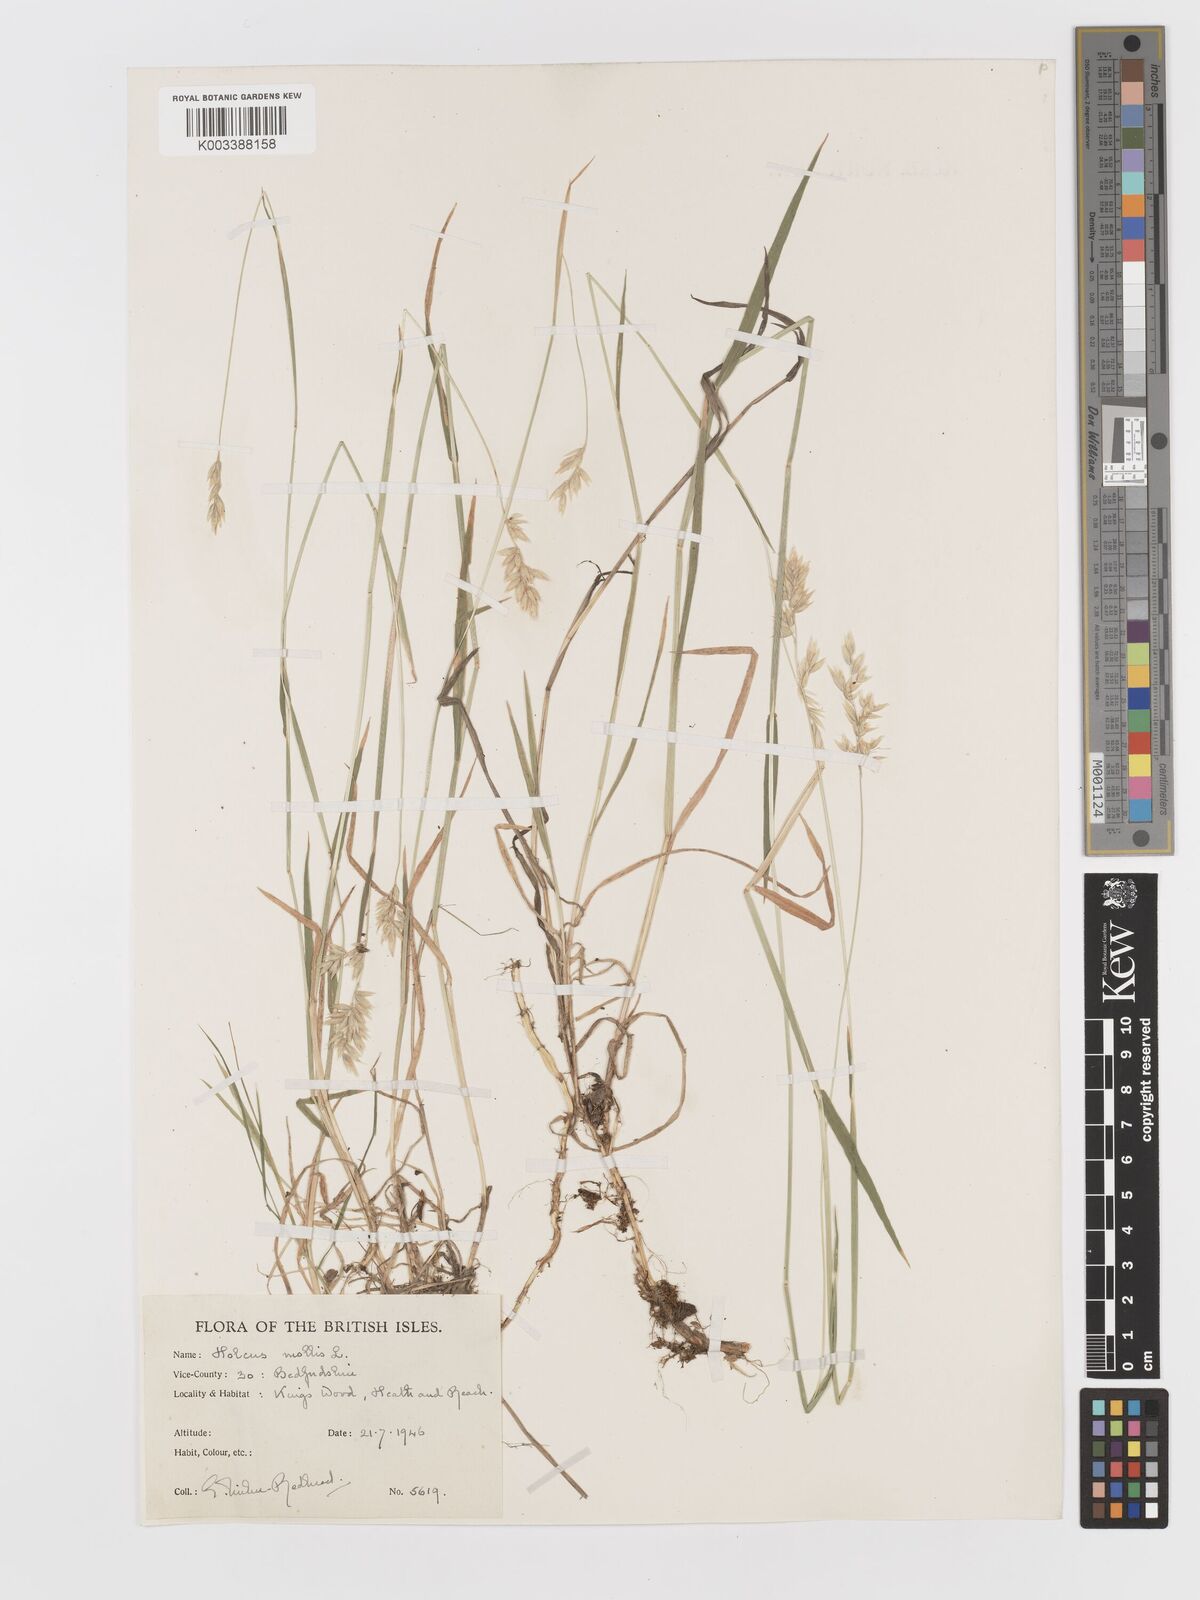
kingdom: Plantae
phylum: Tracheophyta
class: Liliopsida
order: Poales
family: Poaceae
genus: Holcus
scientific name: Holcus mollis
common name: Creeping velvetgrass
